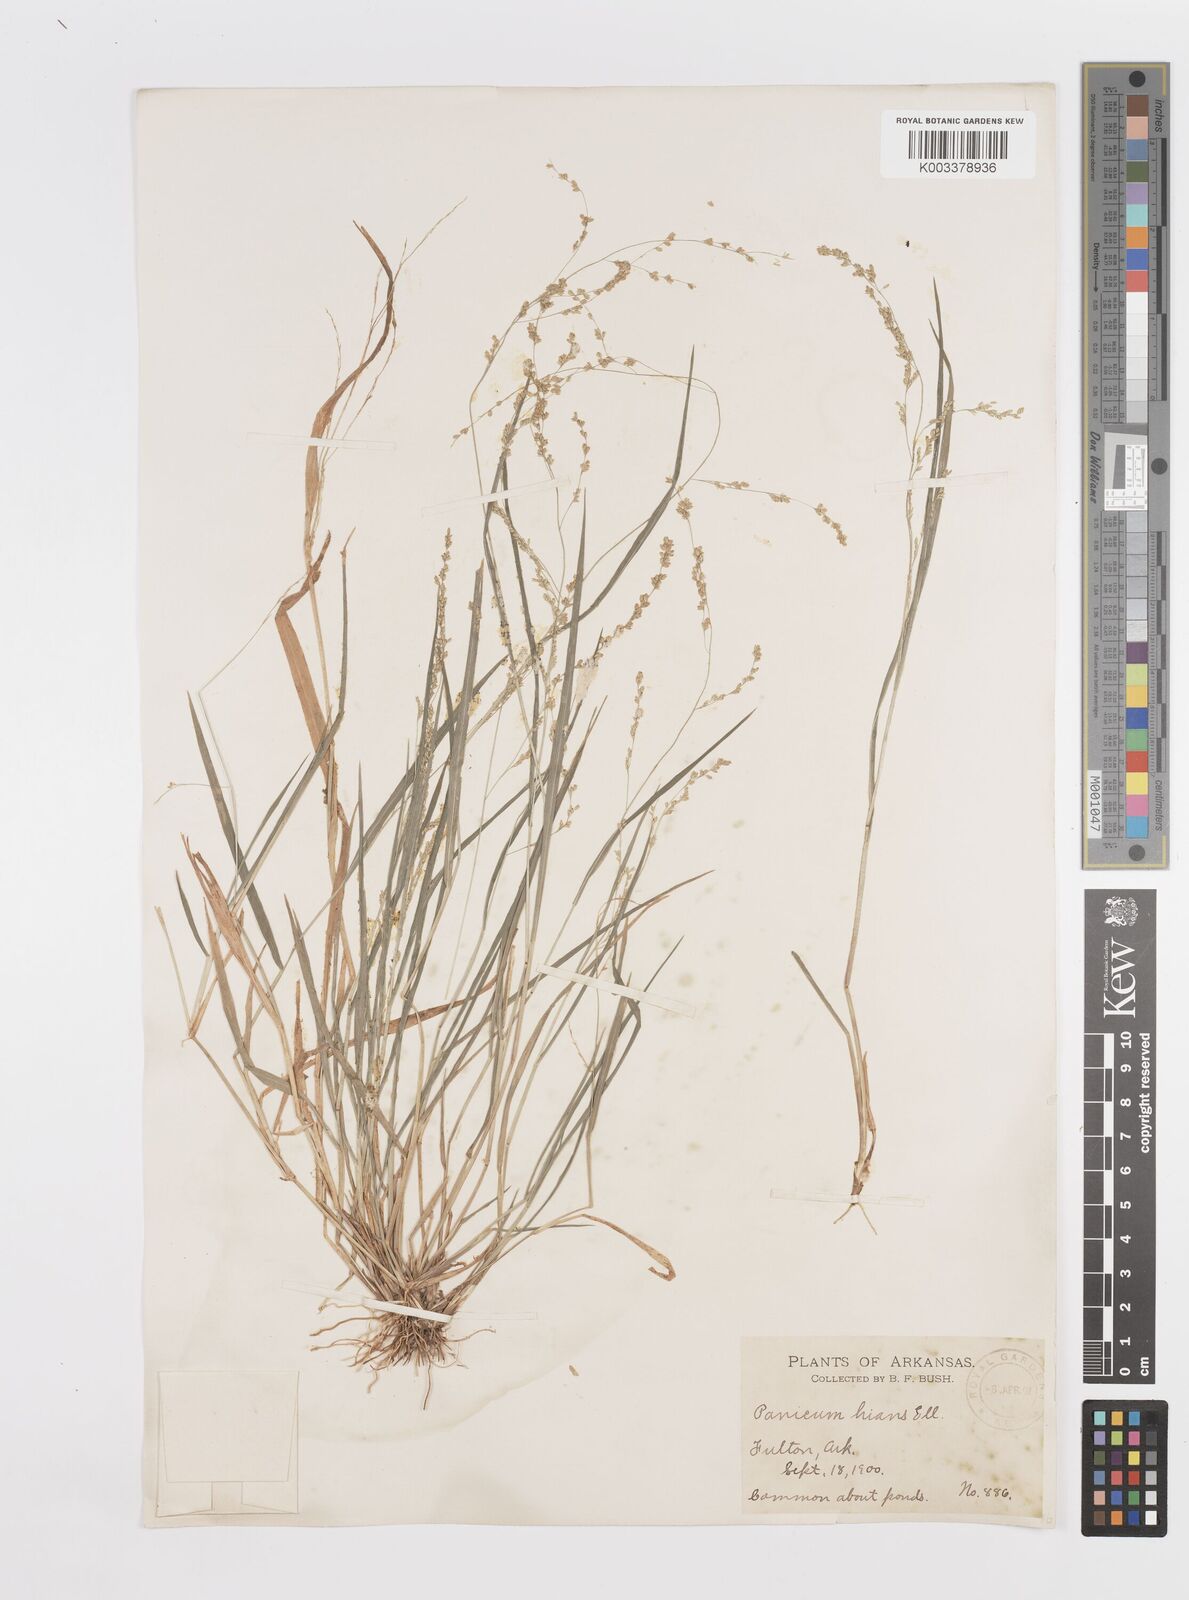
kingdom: Plantae
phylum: Tracheophyta
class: Liliopsida
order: Poales
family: Poaceae
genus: Steinchisma
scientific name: Steinchisma hians
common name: Gaping panic grass
